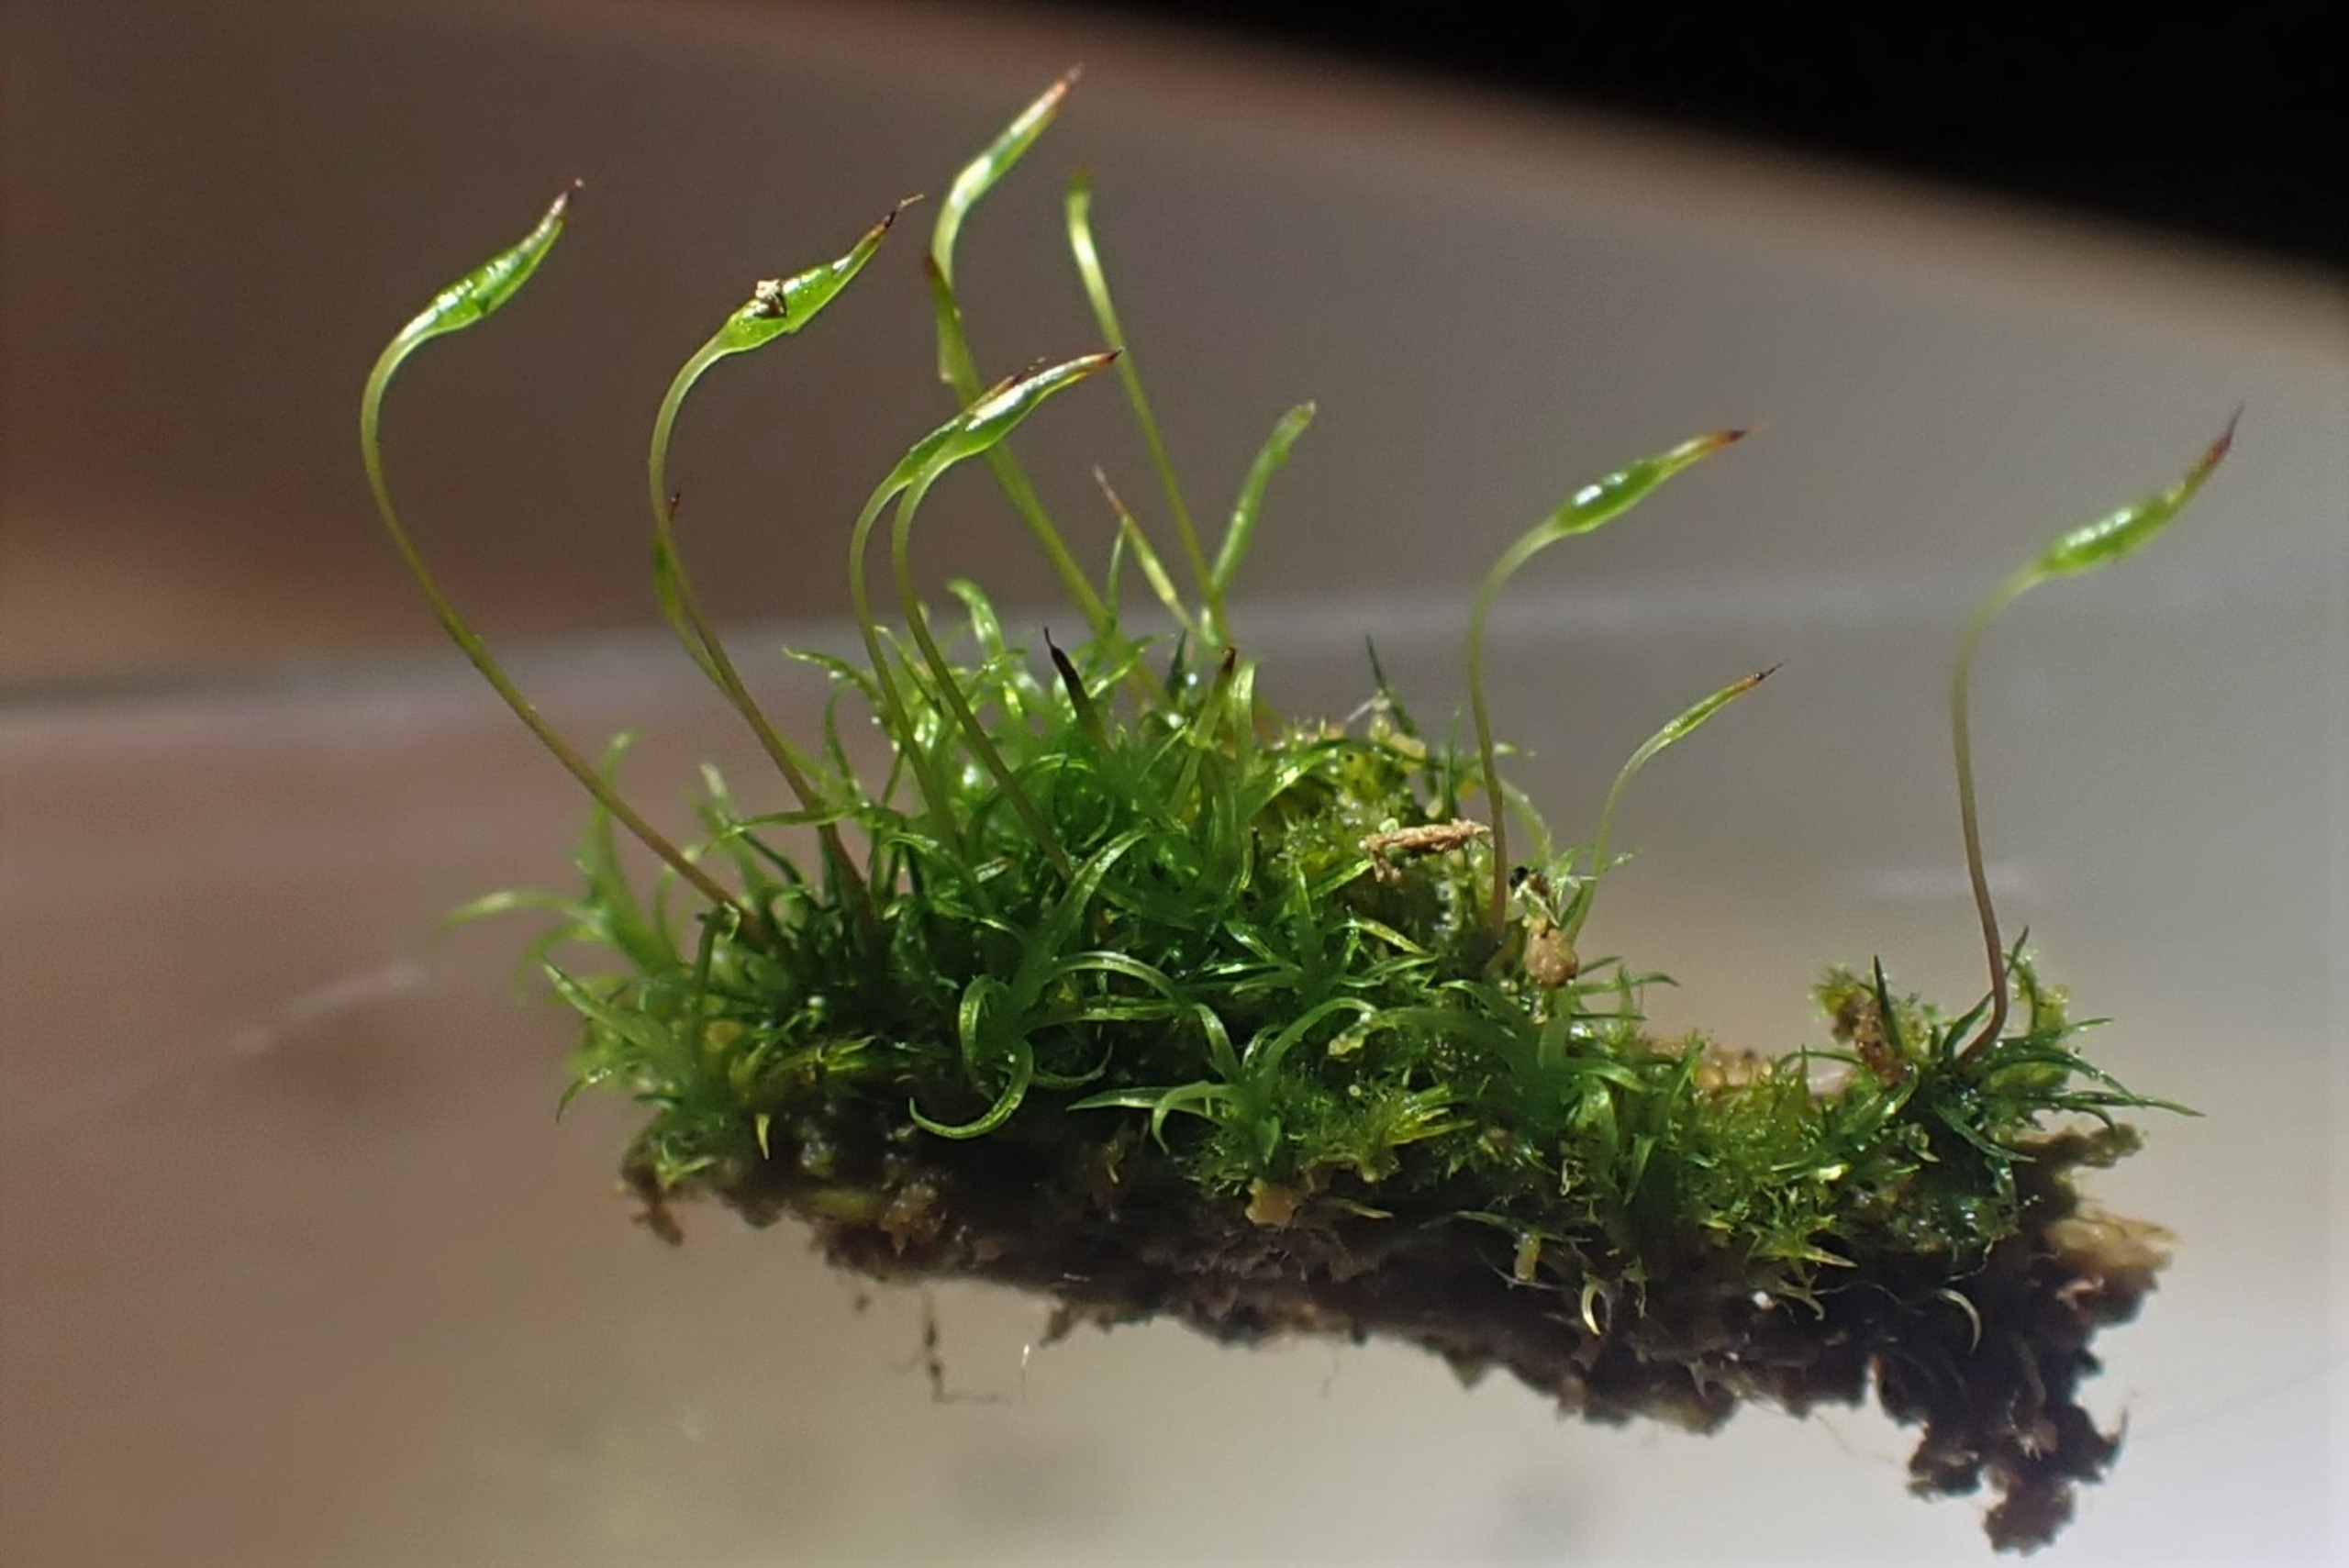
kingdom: Plantae
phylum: Bryophyta
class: Bryopsida
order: Orthodontiales
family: Orthodontiaceae
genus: Orthodontium
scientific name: Orthodontium lineare
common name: Smalbladet plysmos
